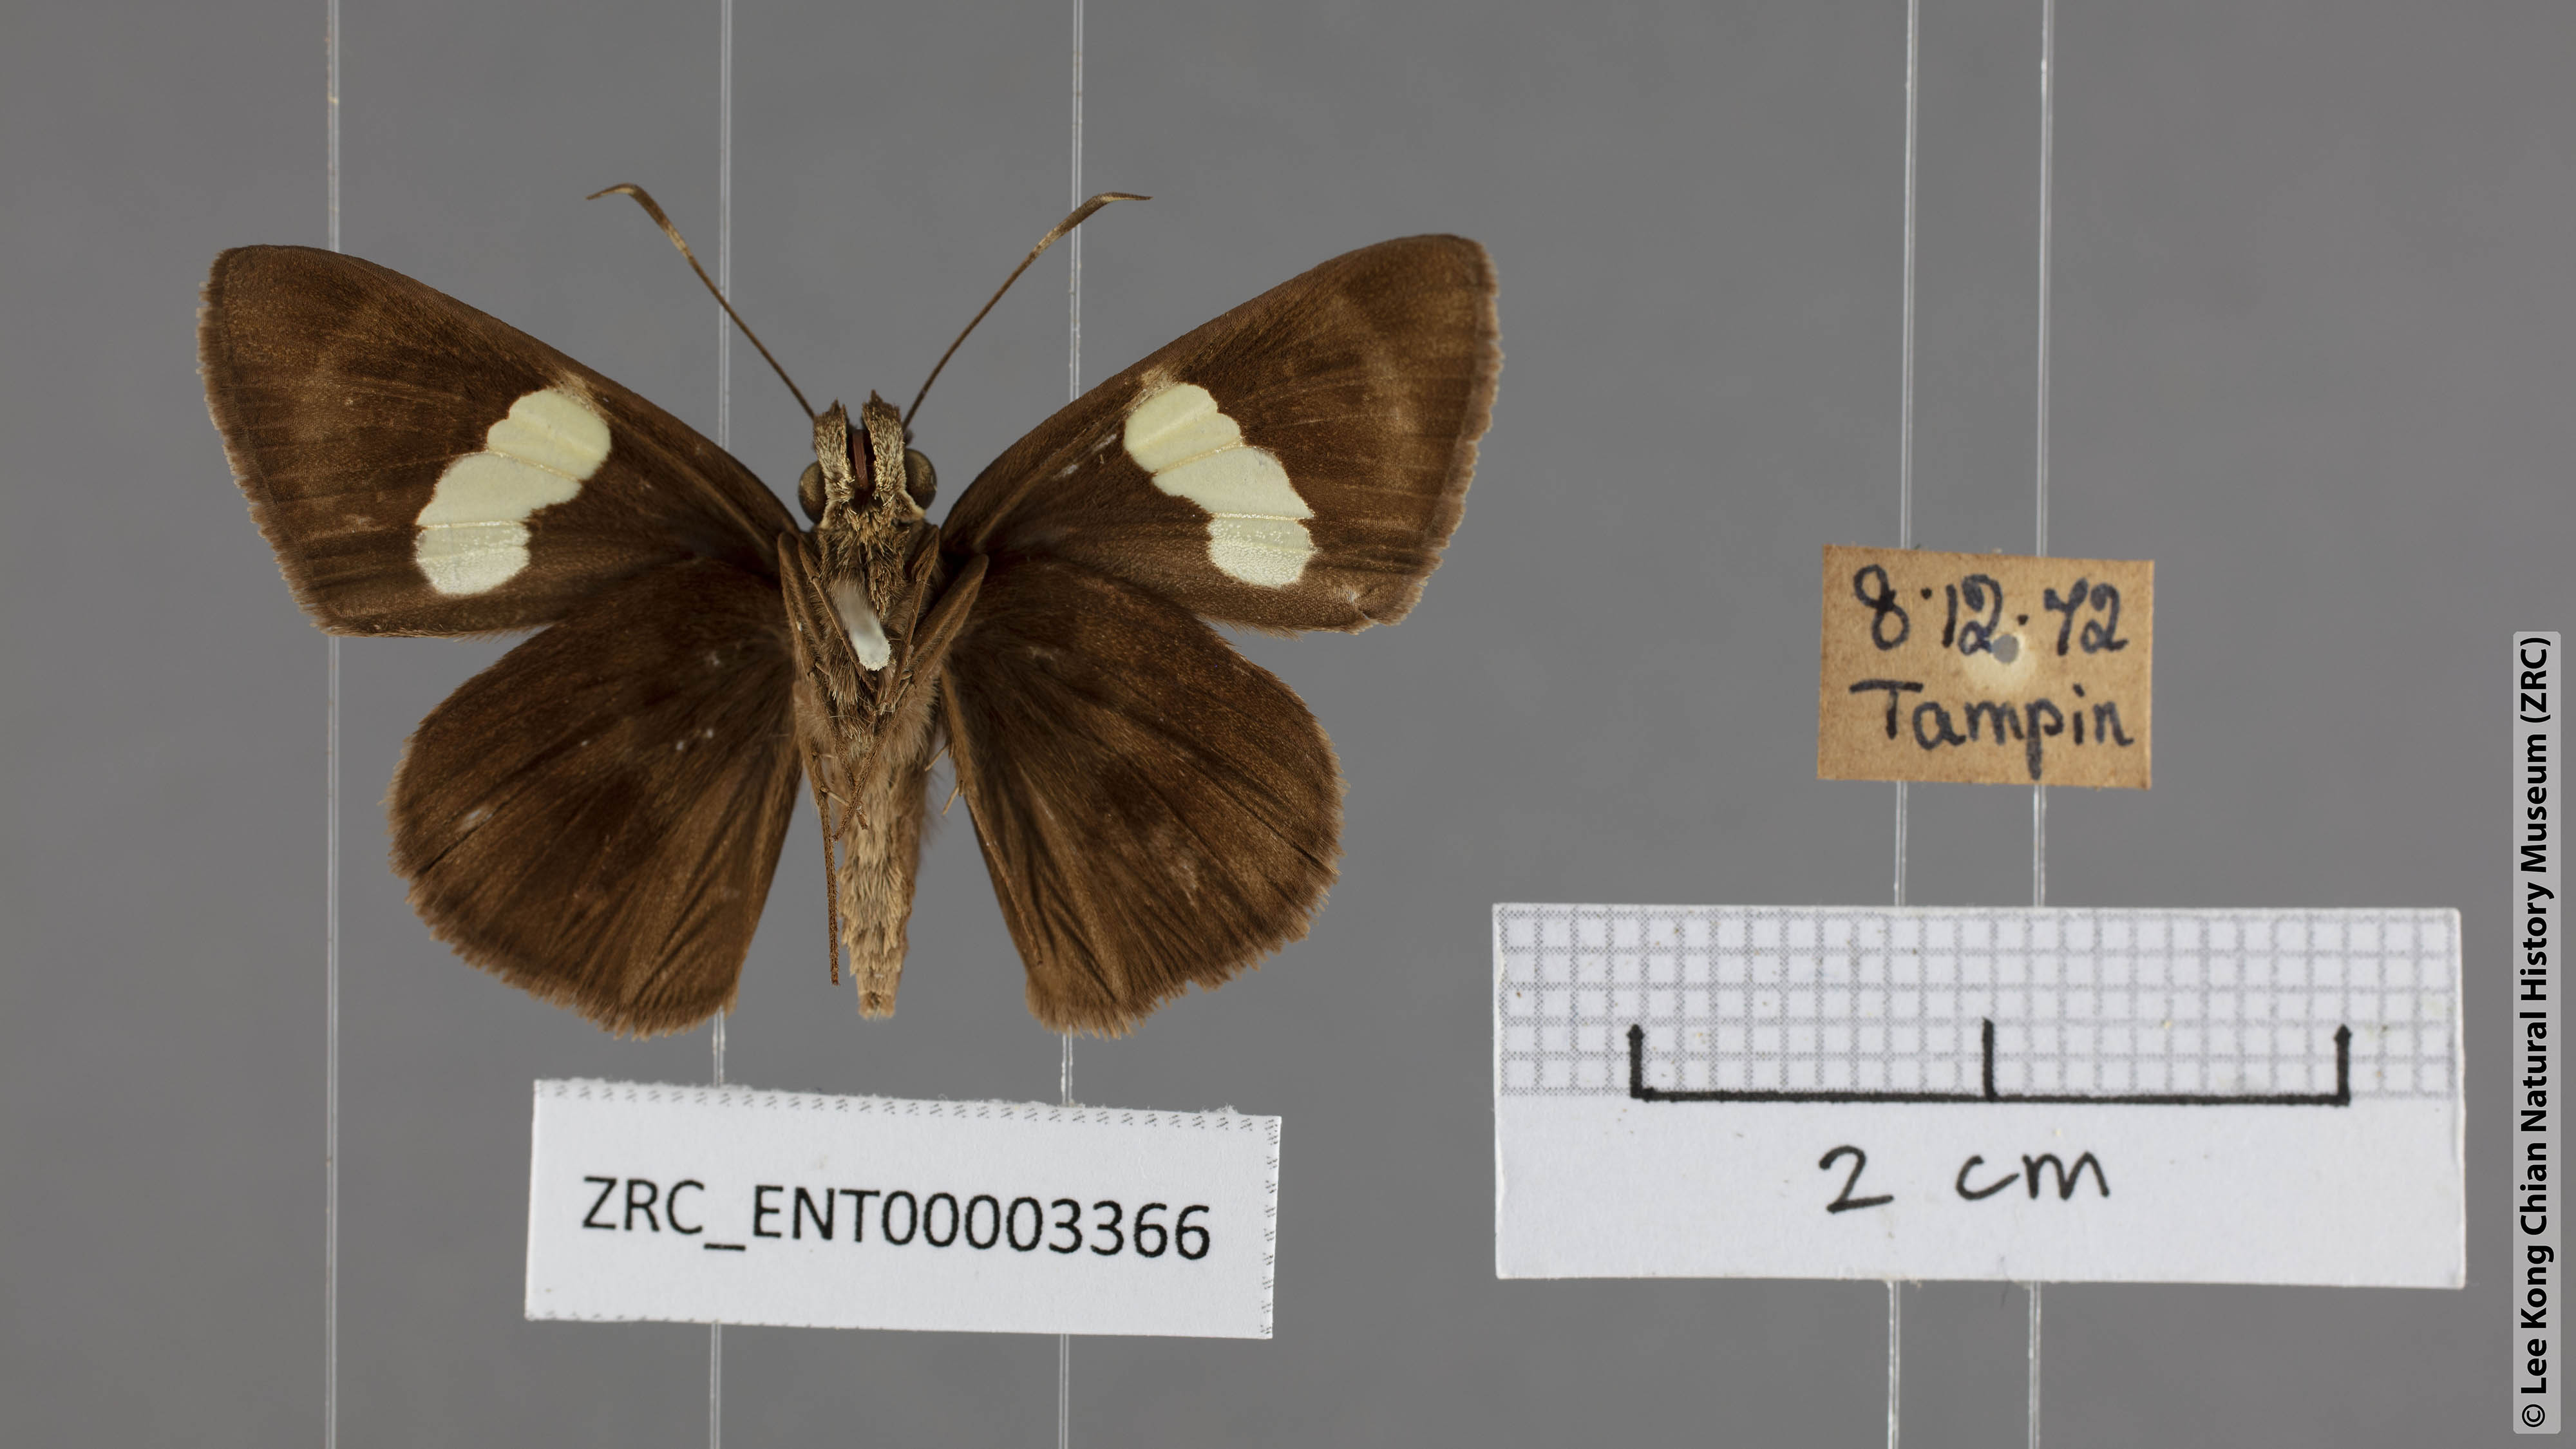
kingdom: Animalia
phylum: Arthropoda
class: Insecta
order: Lepidoptera
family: Hesperiidae
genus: Notocrypta
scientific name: Notocrypta pria
